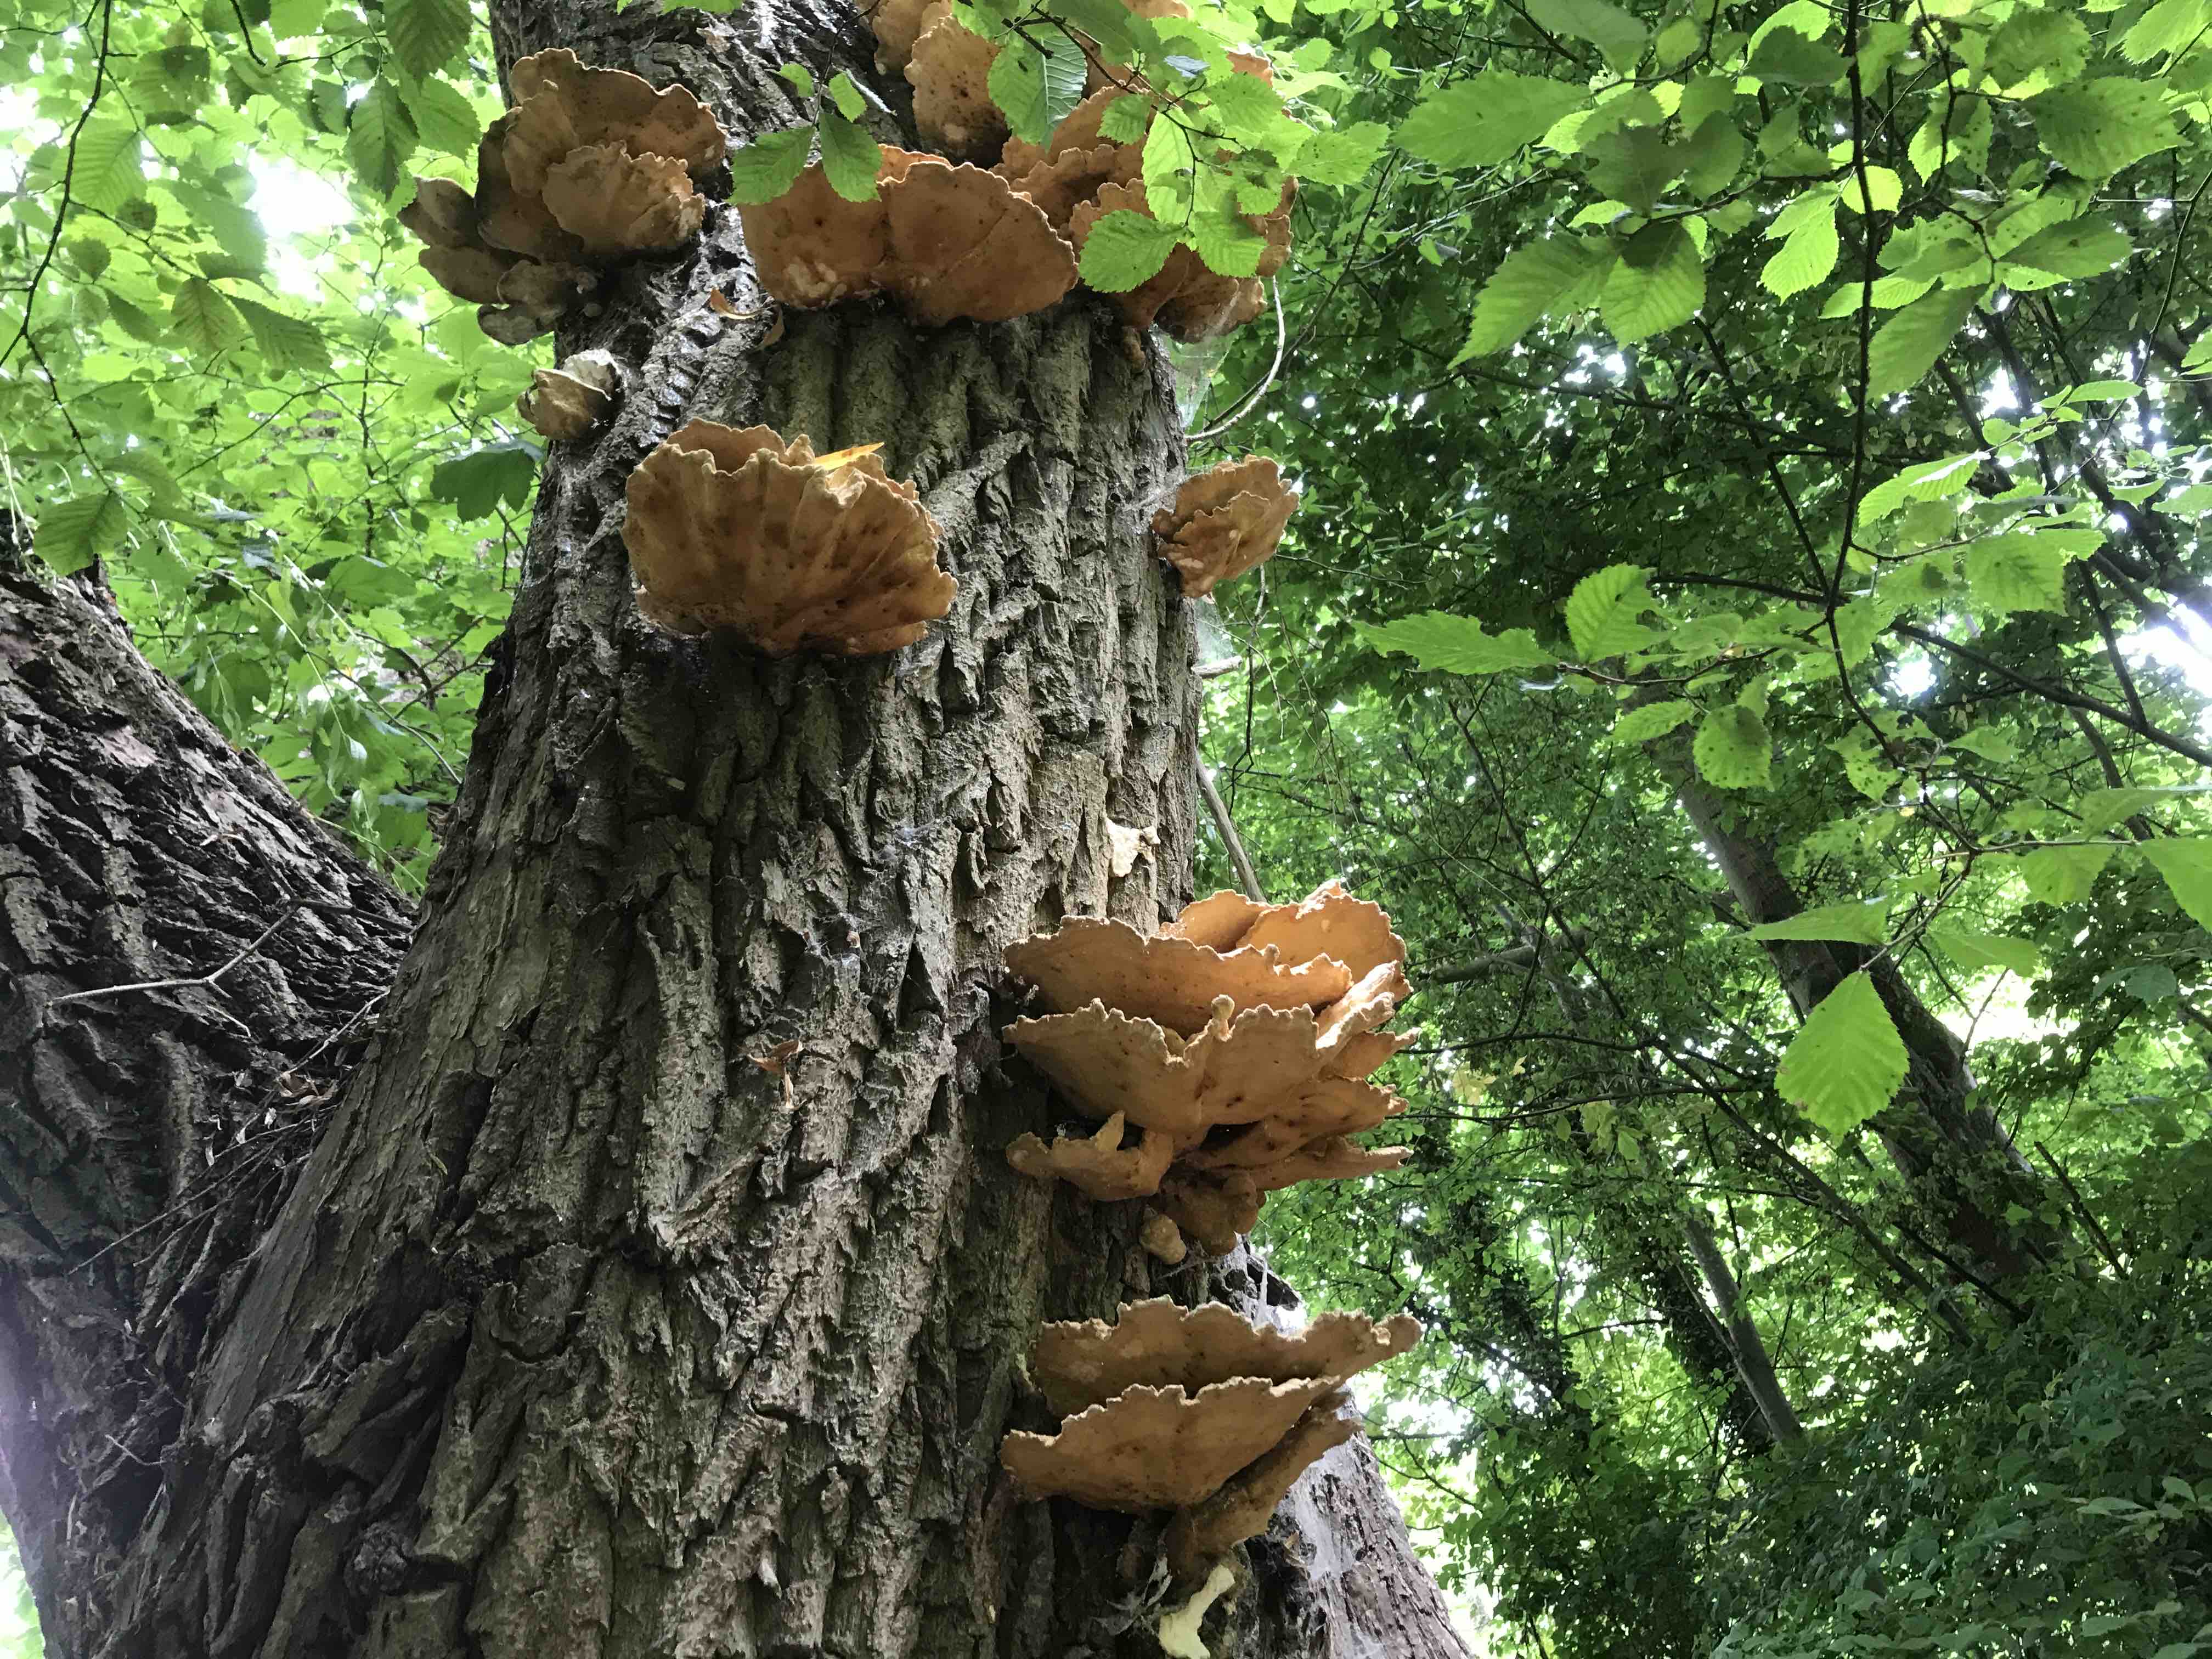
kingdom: Fungi
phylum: Basidiomycota
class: Agaricomycetes
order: Polyporales
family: Laetiporaceae
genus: Laetiporus
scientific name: Laetiporus sulphureus
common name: svovlporesvamp
